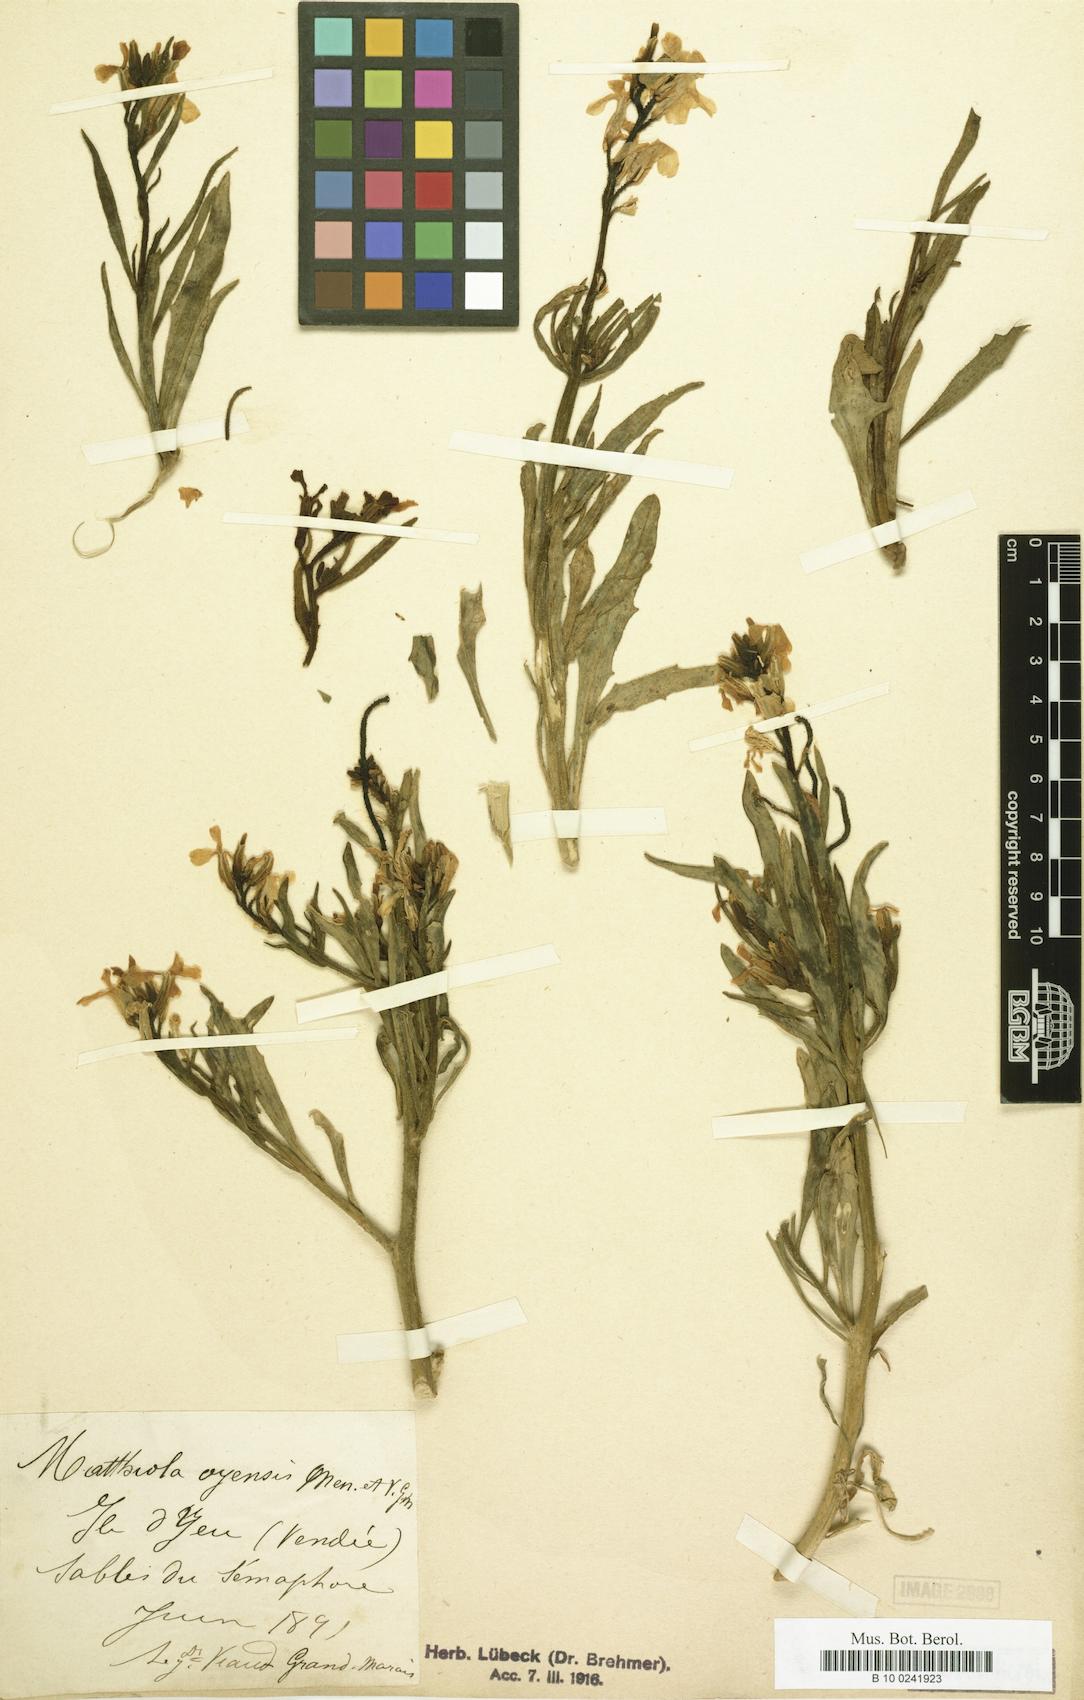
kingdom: Plantae
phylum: Tracheophyta
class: Magnoliopsida
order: Brassicales
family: Brassicaceae
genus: Matthiola
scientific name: Matthiola sinuata
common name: Sea stock
